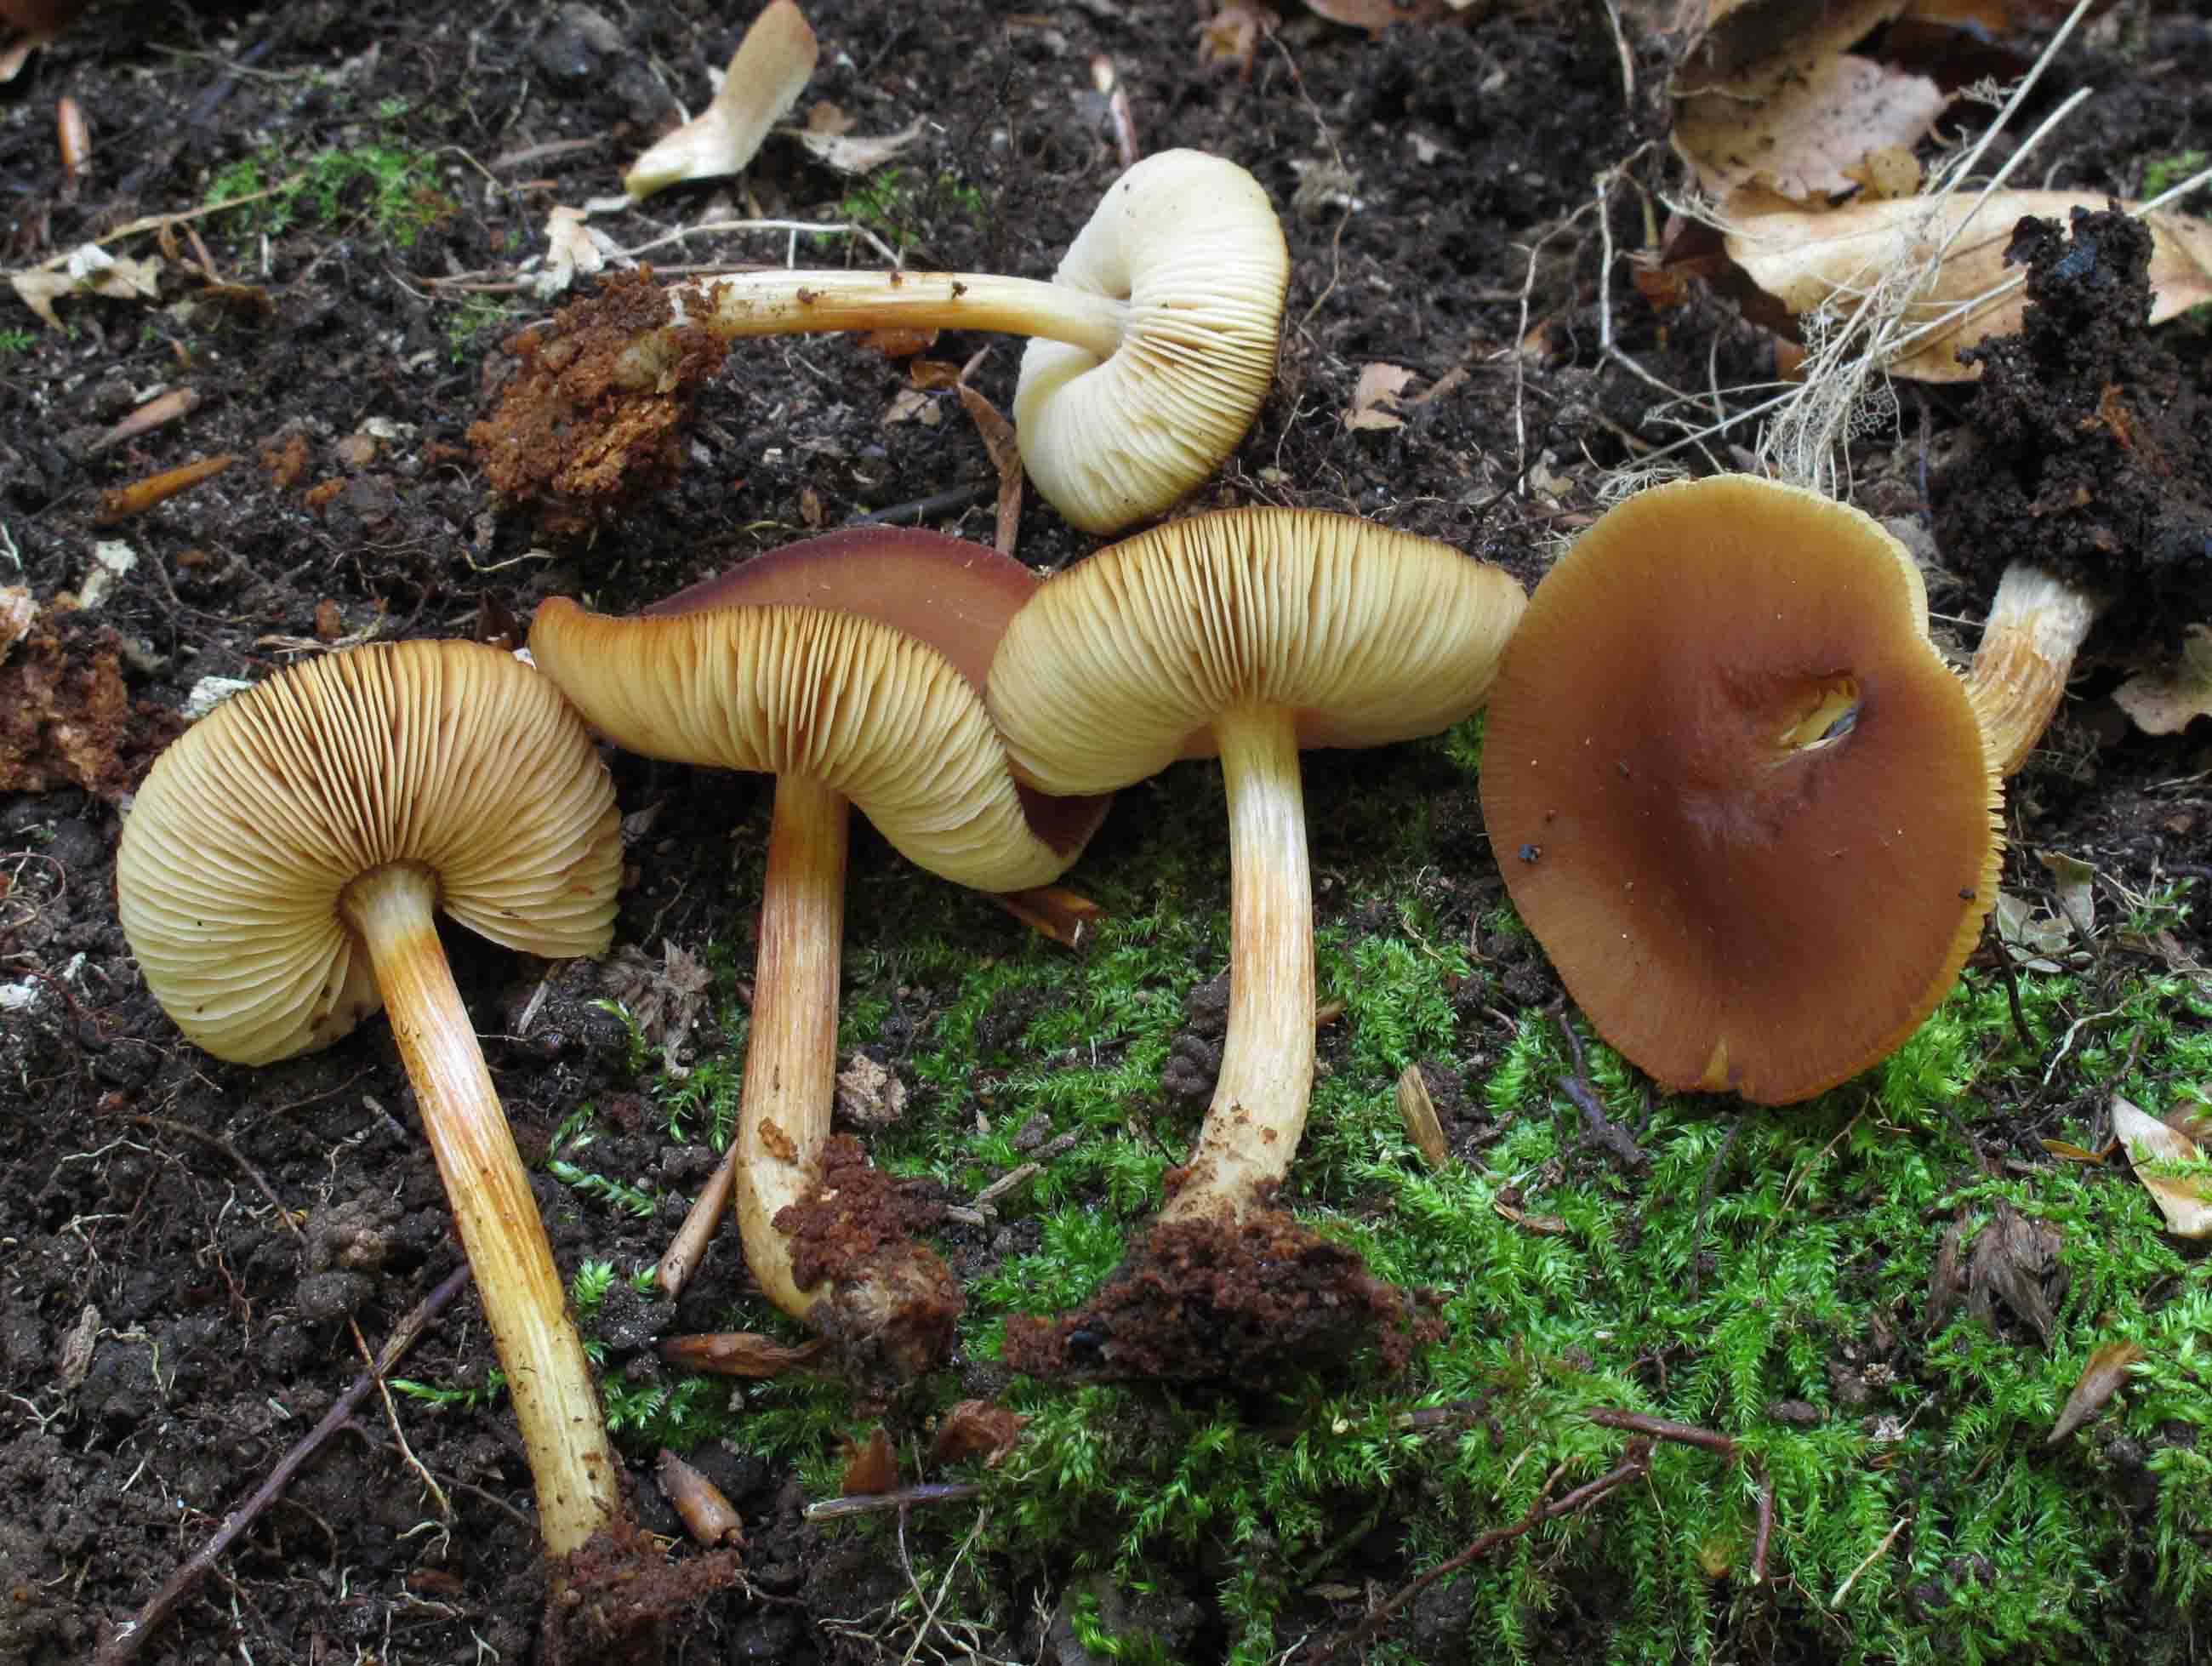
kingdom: Fungi
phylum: Basidiomycota
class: Agaricomycetes
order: Agaricales
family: Pluteaceae
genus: Pluteus
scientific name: Pluteus phlebophorus
